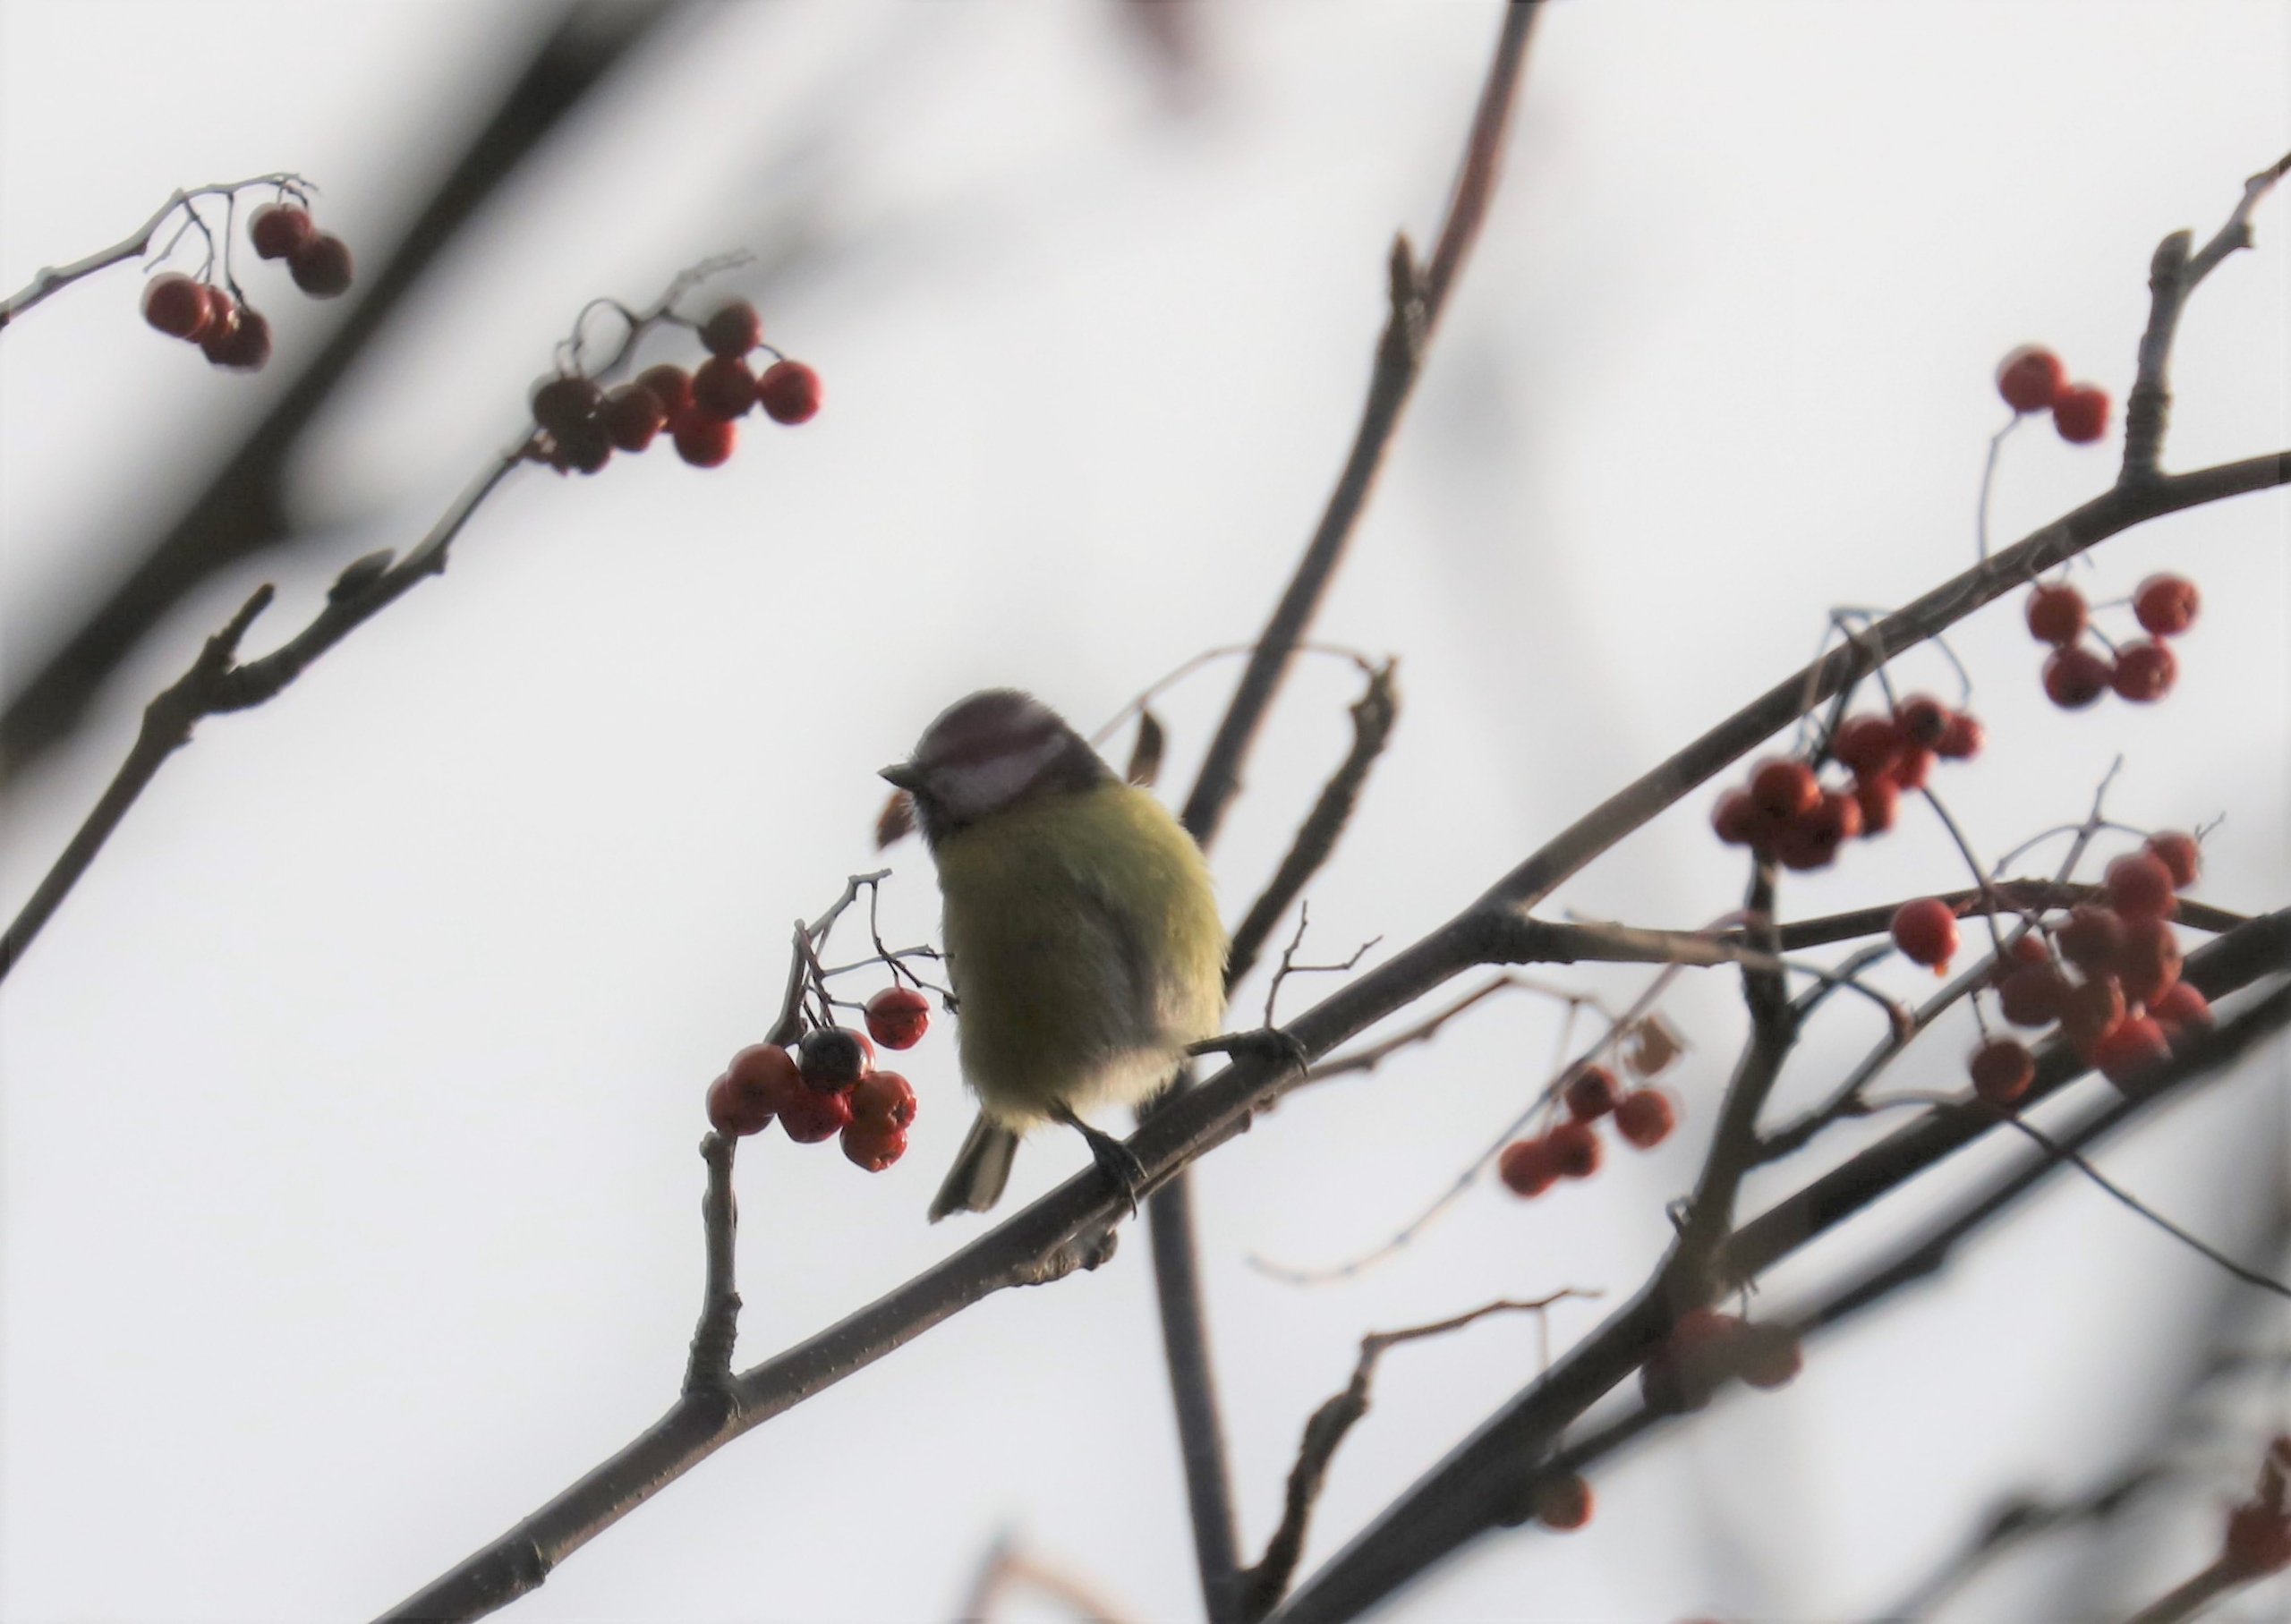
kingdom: Animalia
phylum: Chordata
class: Aves
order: Passeriformes
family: Paridae
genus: Cyanistes
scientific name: Cyanistes caeruleus
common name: Blåmejse
